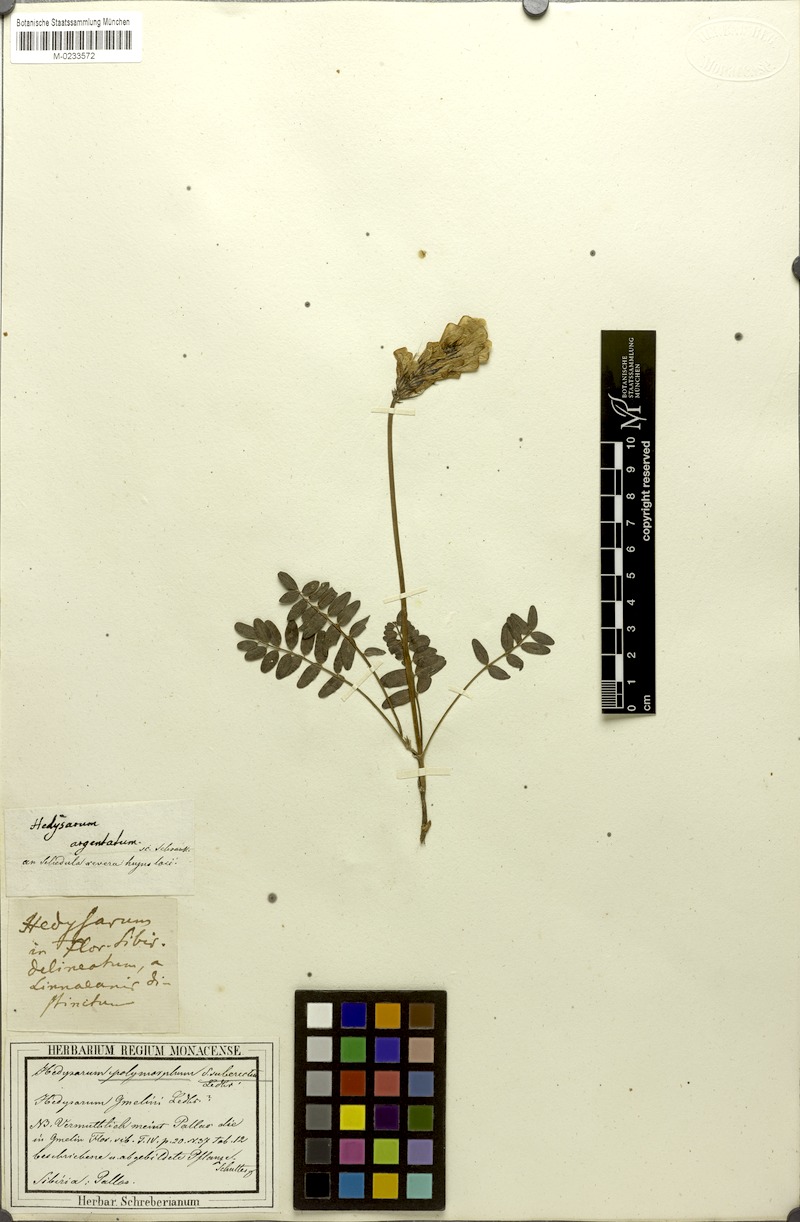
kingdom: Plantae
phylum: Tracheophyta
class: Magnoliopsida
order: Fabales
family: Fabaceae
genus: Hedysarum
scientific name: Hedysarum gmelinii
